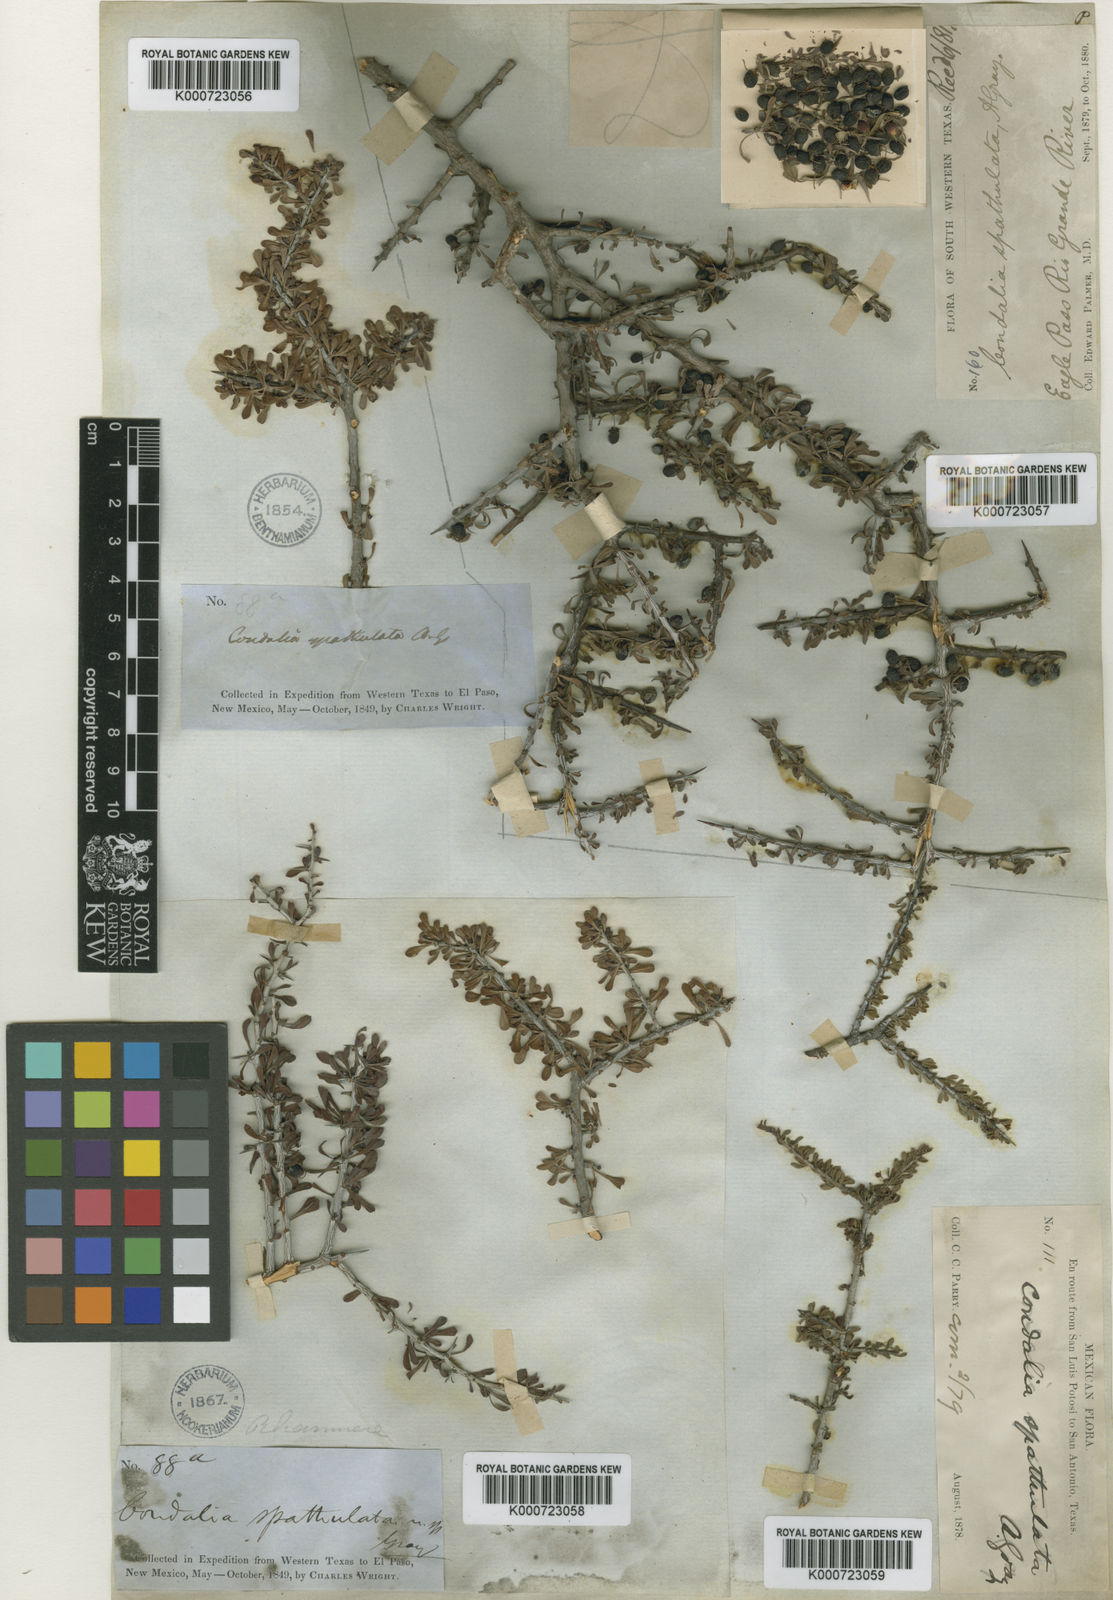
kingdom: Plantae
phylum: Tracheophyta
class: Magnoliopsida
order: Rosales
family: Rhamnaceae
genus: Condalia
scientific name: Condalia spathulata
